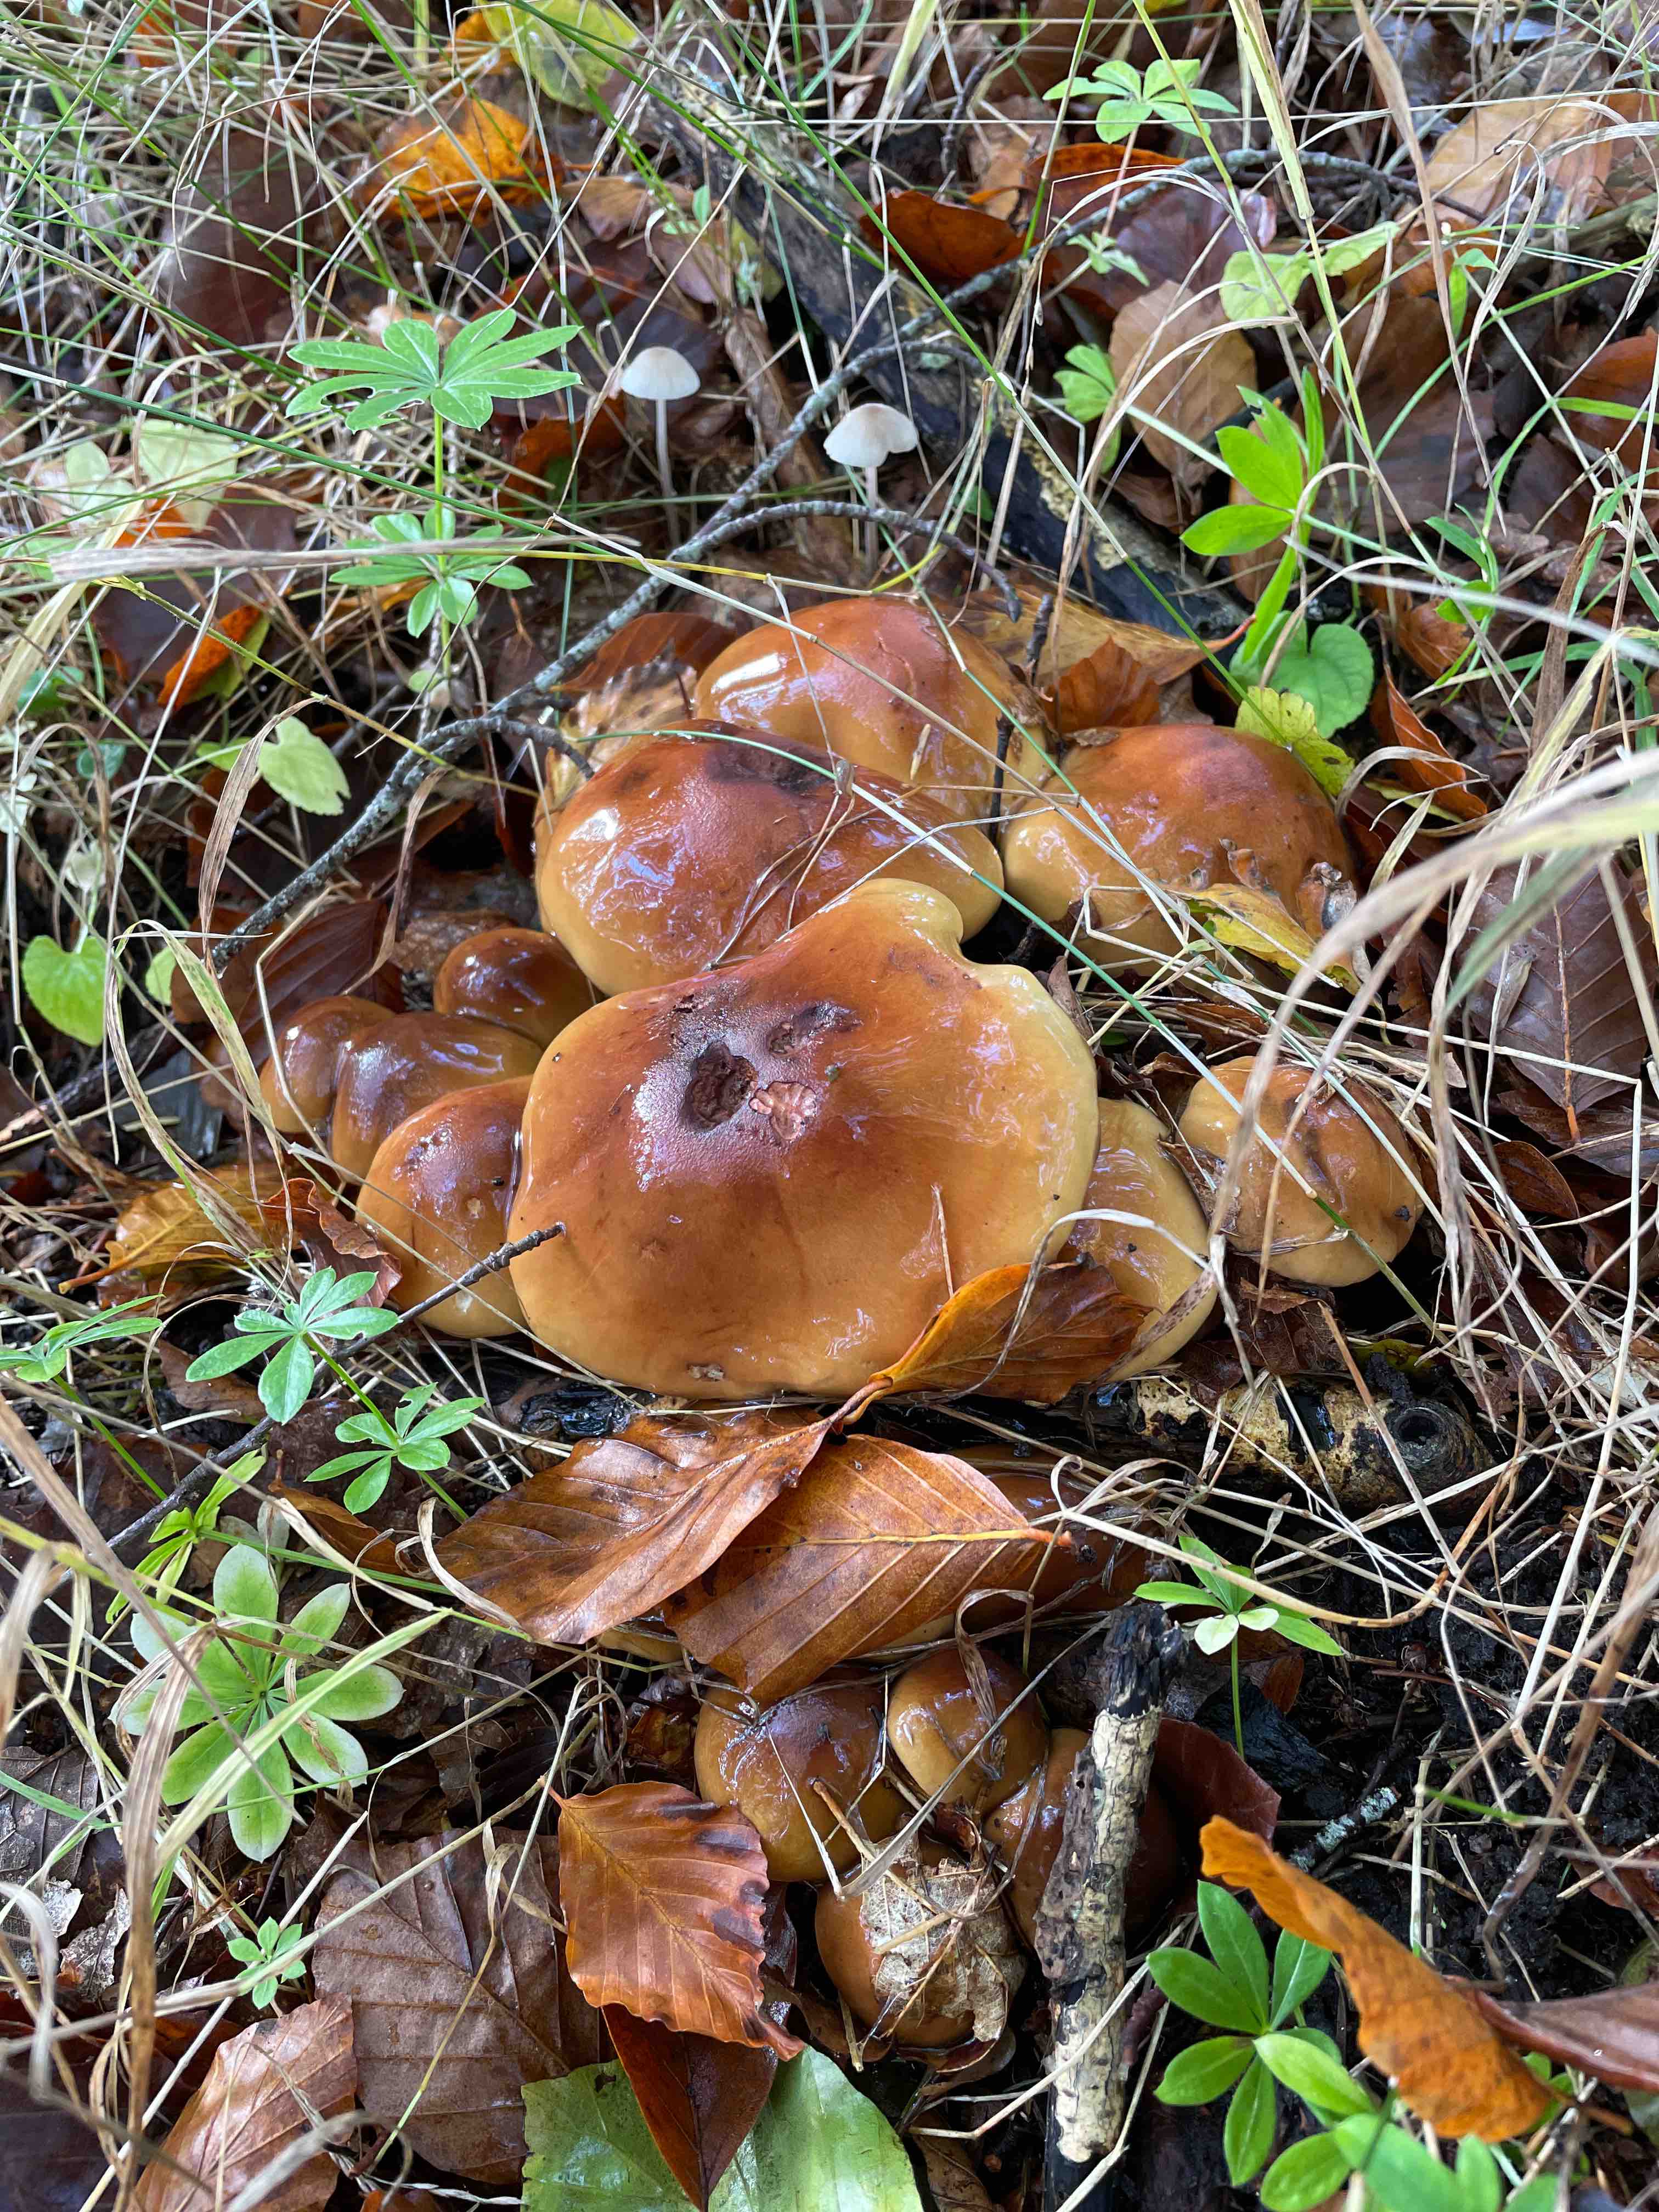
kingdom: Fungi
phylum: Basidiomycota
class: Agaricomycetes
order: Agaricales
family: Tricholomataceae
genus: Tricholoma
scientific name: Tricholoma ustale
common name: sveden ridderhat
